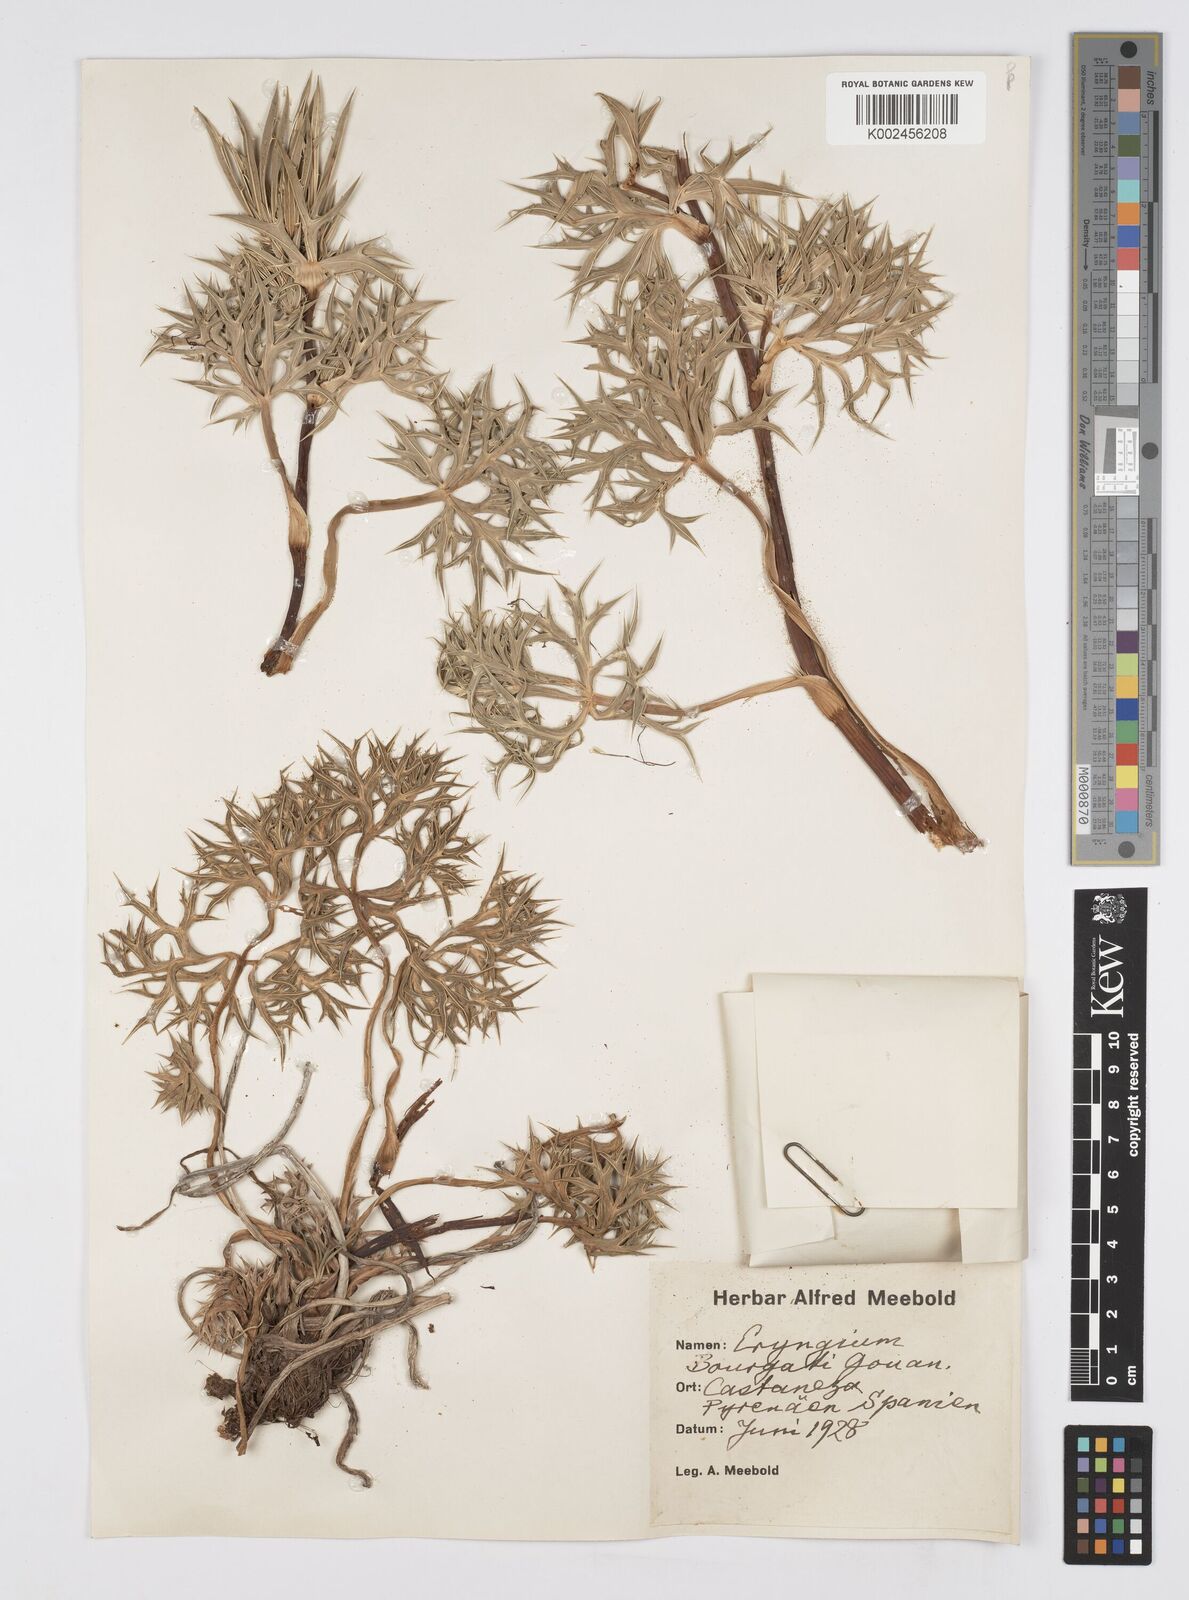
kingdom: Plantae
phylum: Tracheophyta
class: Magnoliopsida
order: Apiales
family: Apiaceae
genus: Eryngium
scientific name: Eryngium bourgatii
